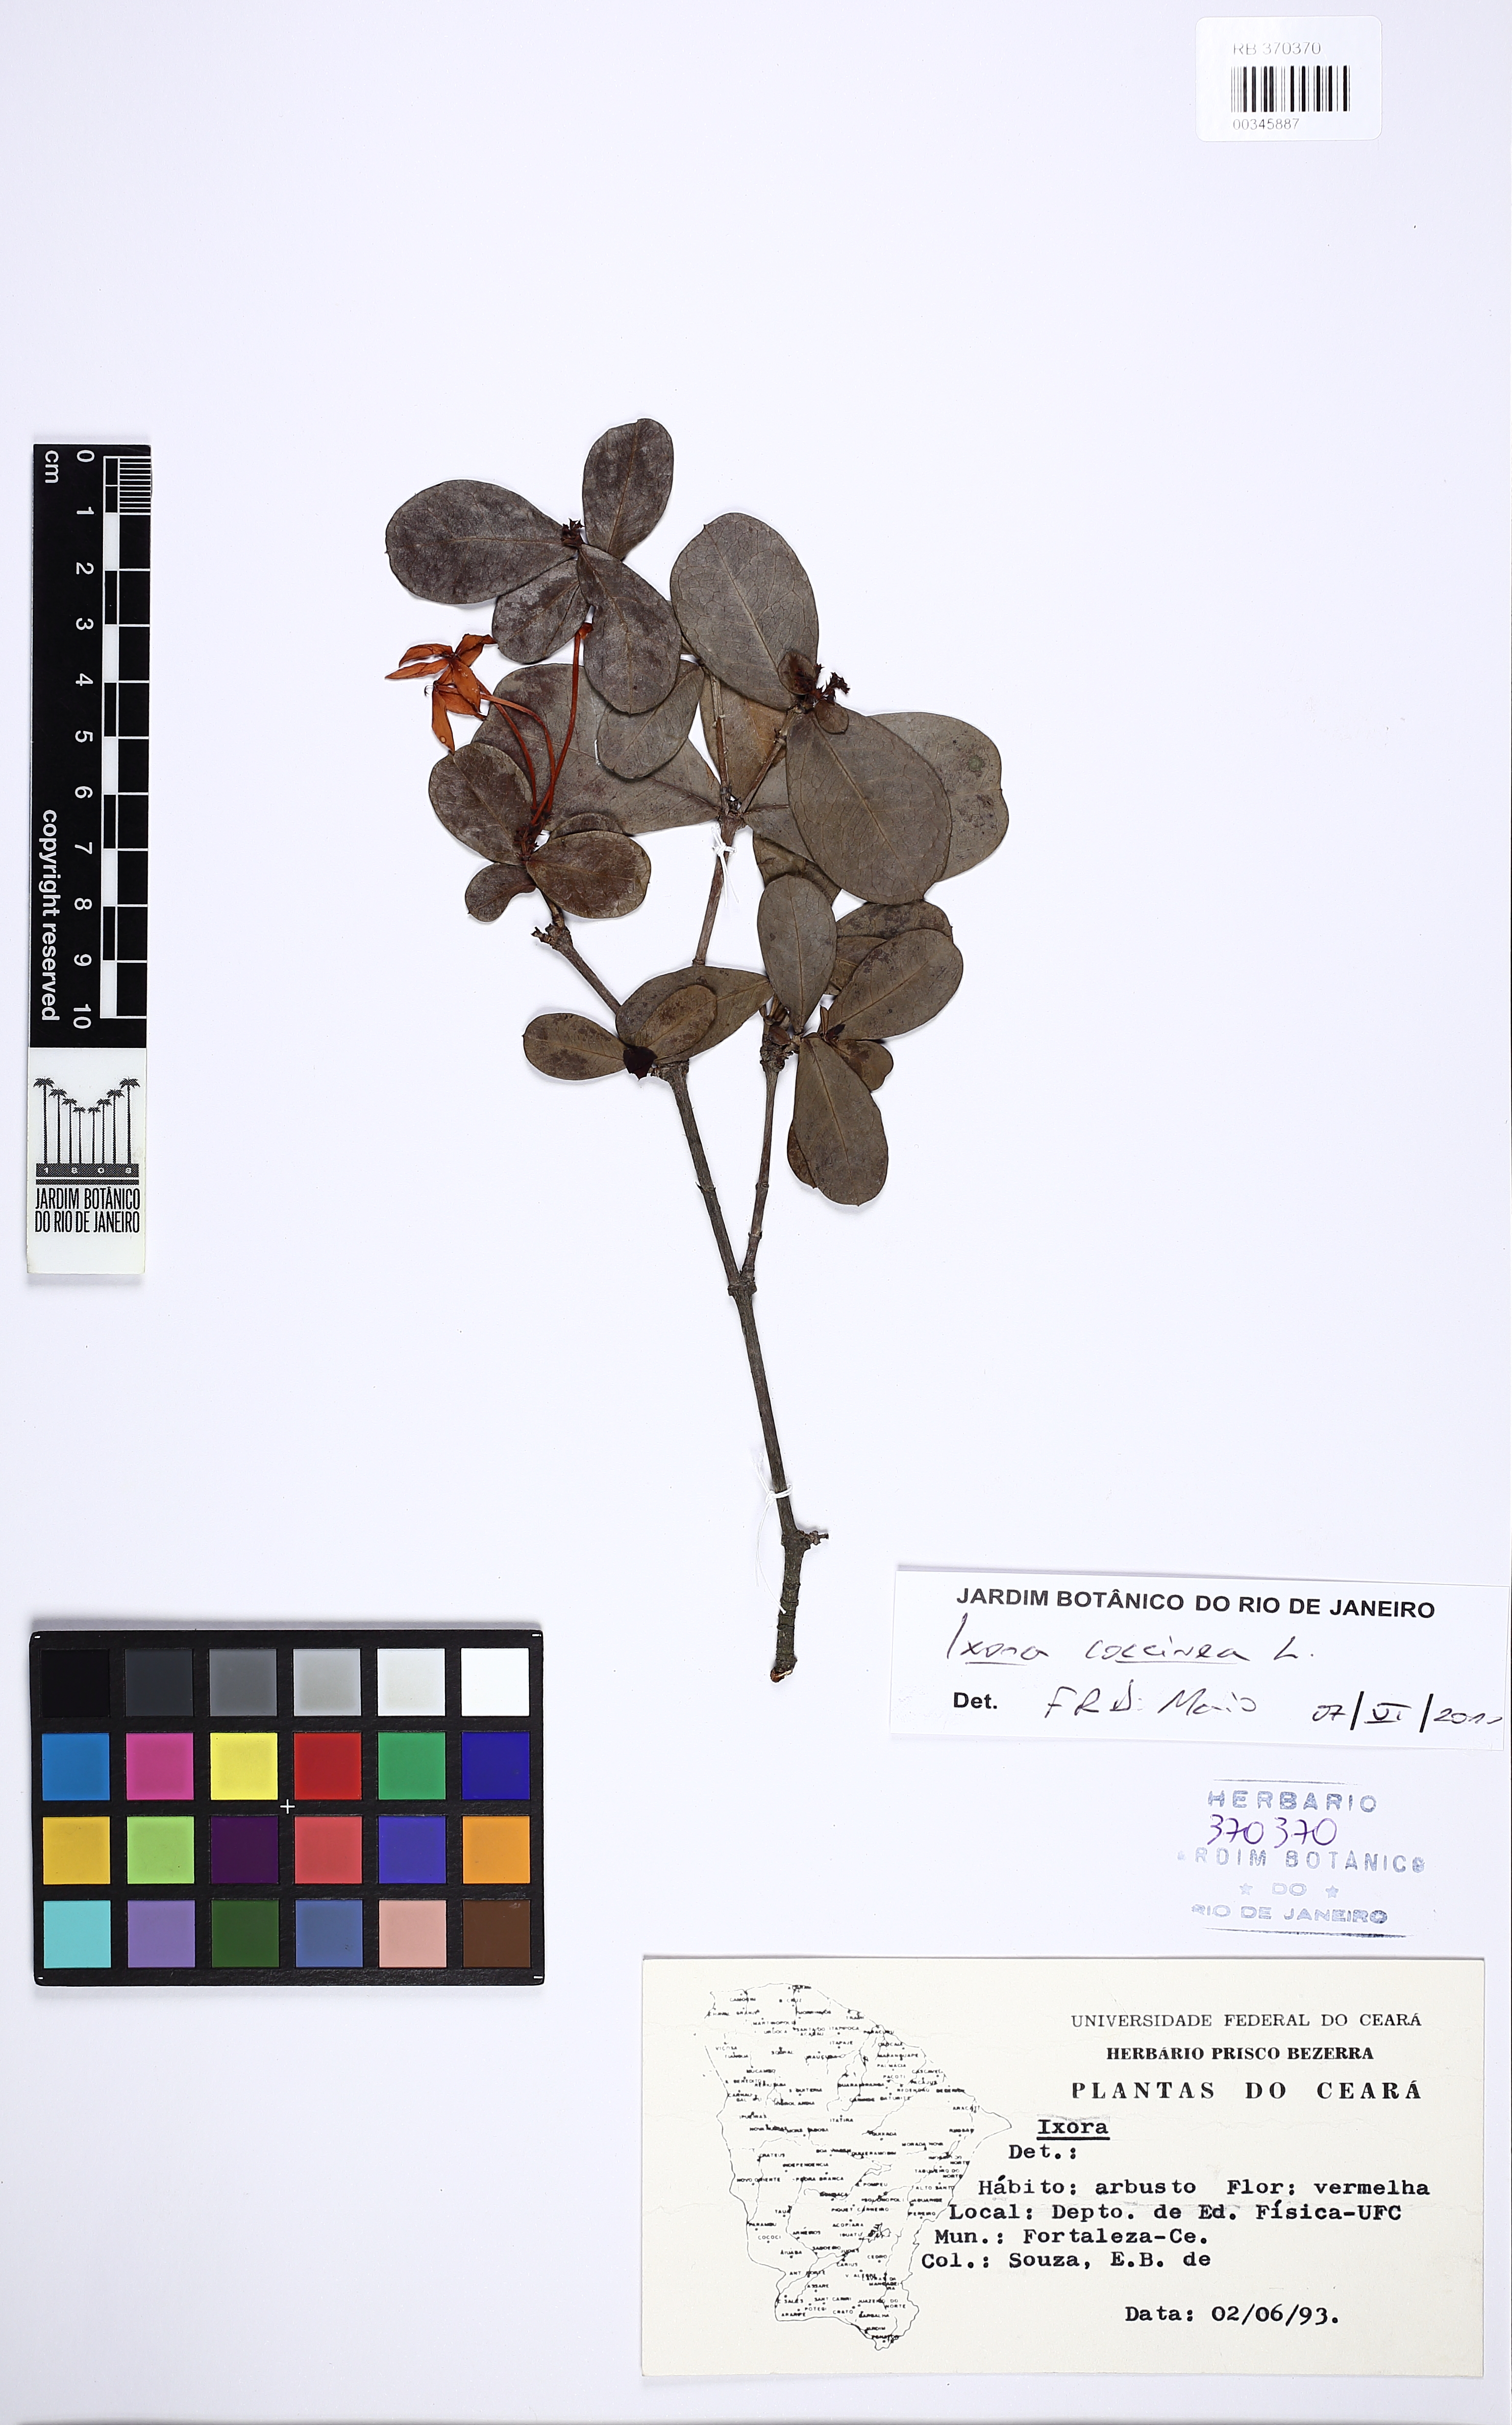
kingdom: Plantae
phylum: Tracheophyta
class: Magnoliopsida
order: Gentianales
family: Rubiaceae
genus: Ixora
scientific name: Ixora coccinea
